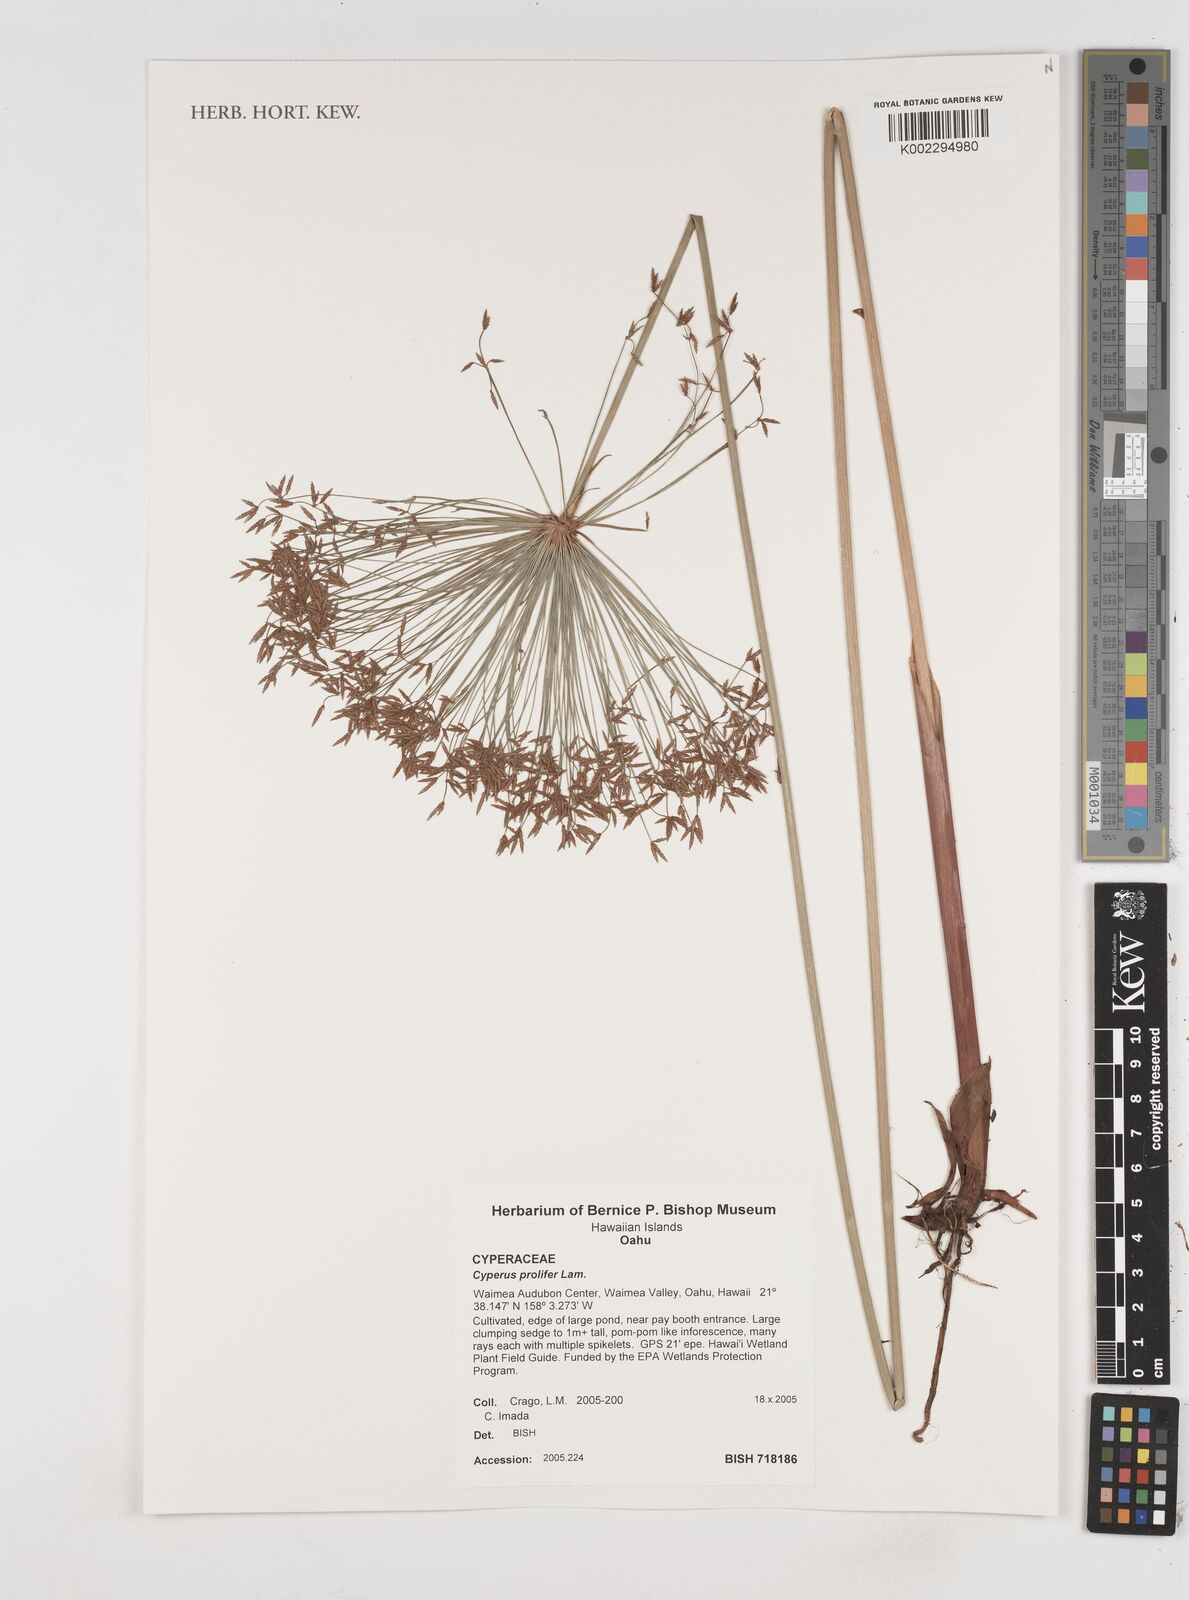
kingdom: Plantae
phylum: Tracheophyta
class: Liliopsida
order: Poales
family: Cyperaceae
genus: Cyperus
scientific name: Cyperus prolifer
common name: Miniature flatsedge
